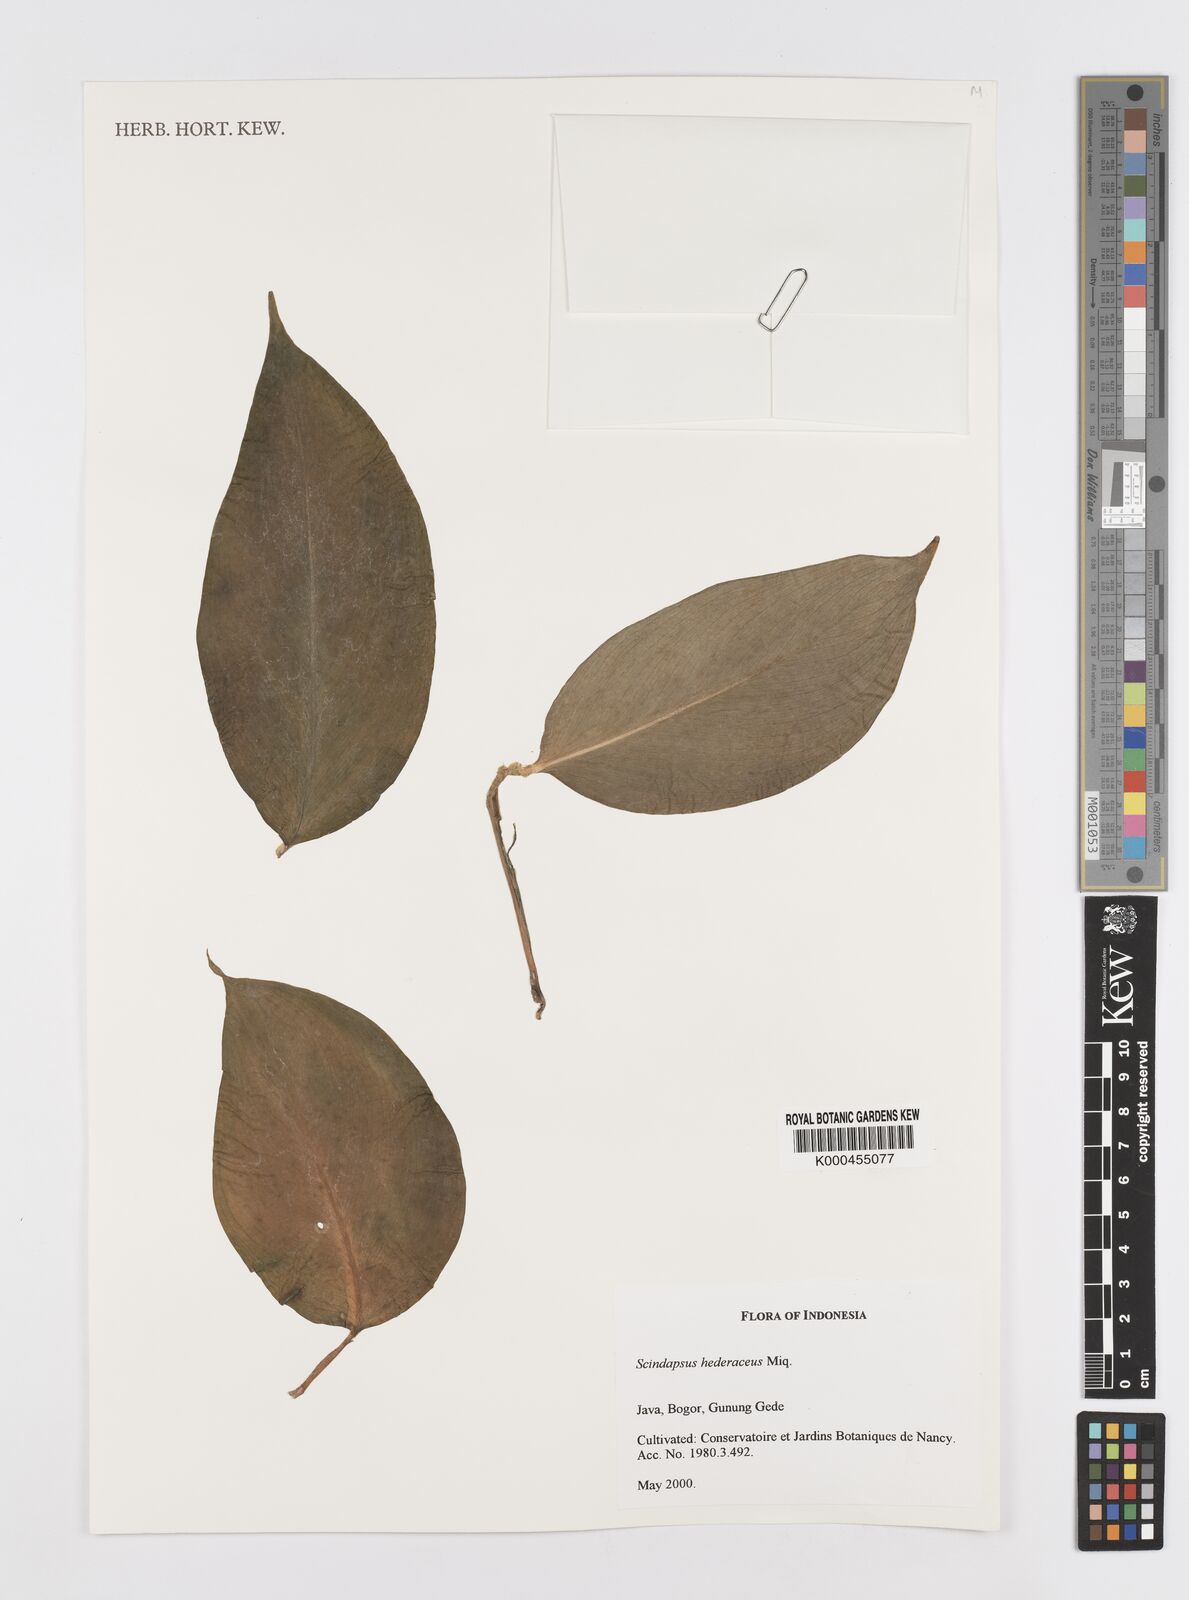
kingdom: Plantae
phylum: Tracheophyta
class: Liliopsida
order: Alismatales
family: Araceae
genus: Scindapsus
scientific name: Scindapsus hederaceus
